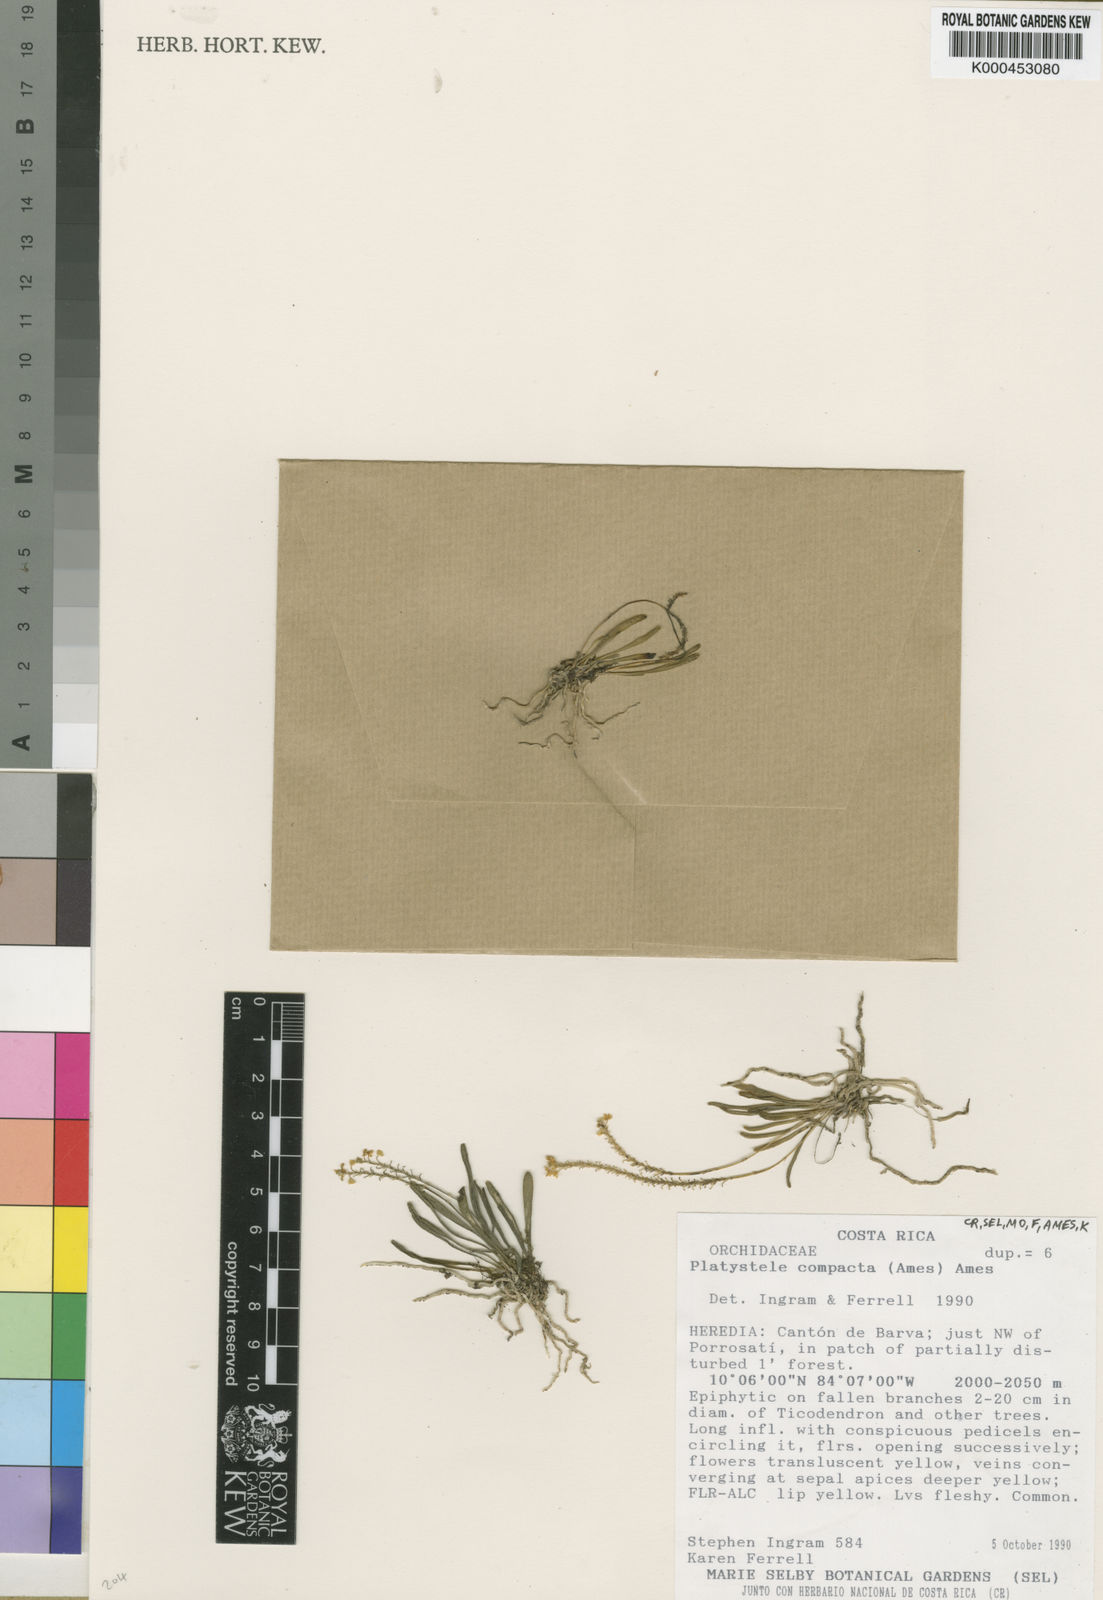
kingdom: Plantae
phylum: Tracheophyta
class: Liliopsida
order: Asparagales
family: Orchidaceae
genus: Platystele
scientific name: Platystele compacta
